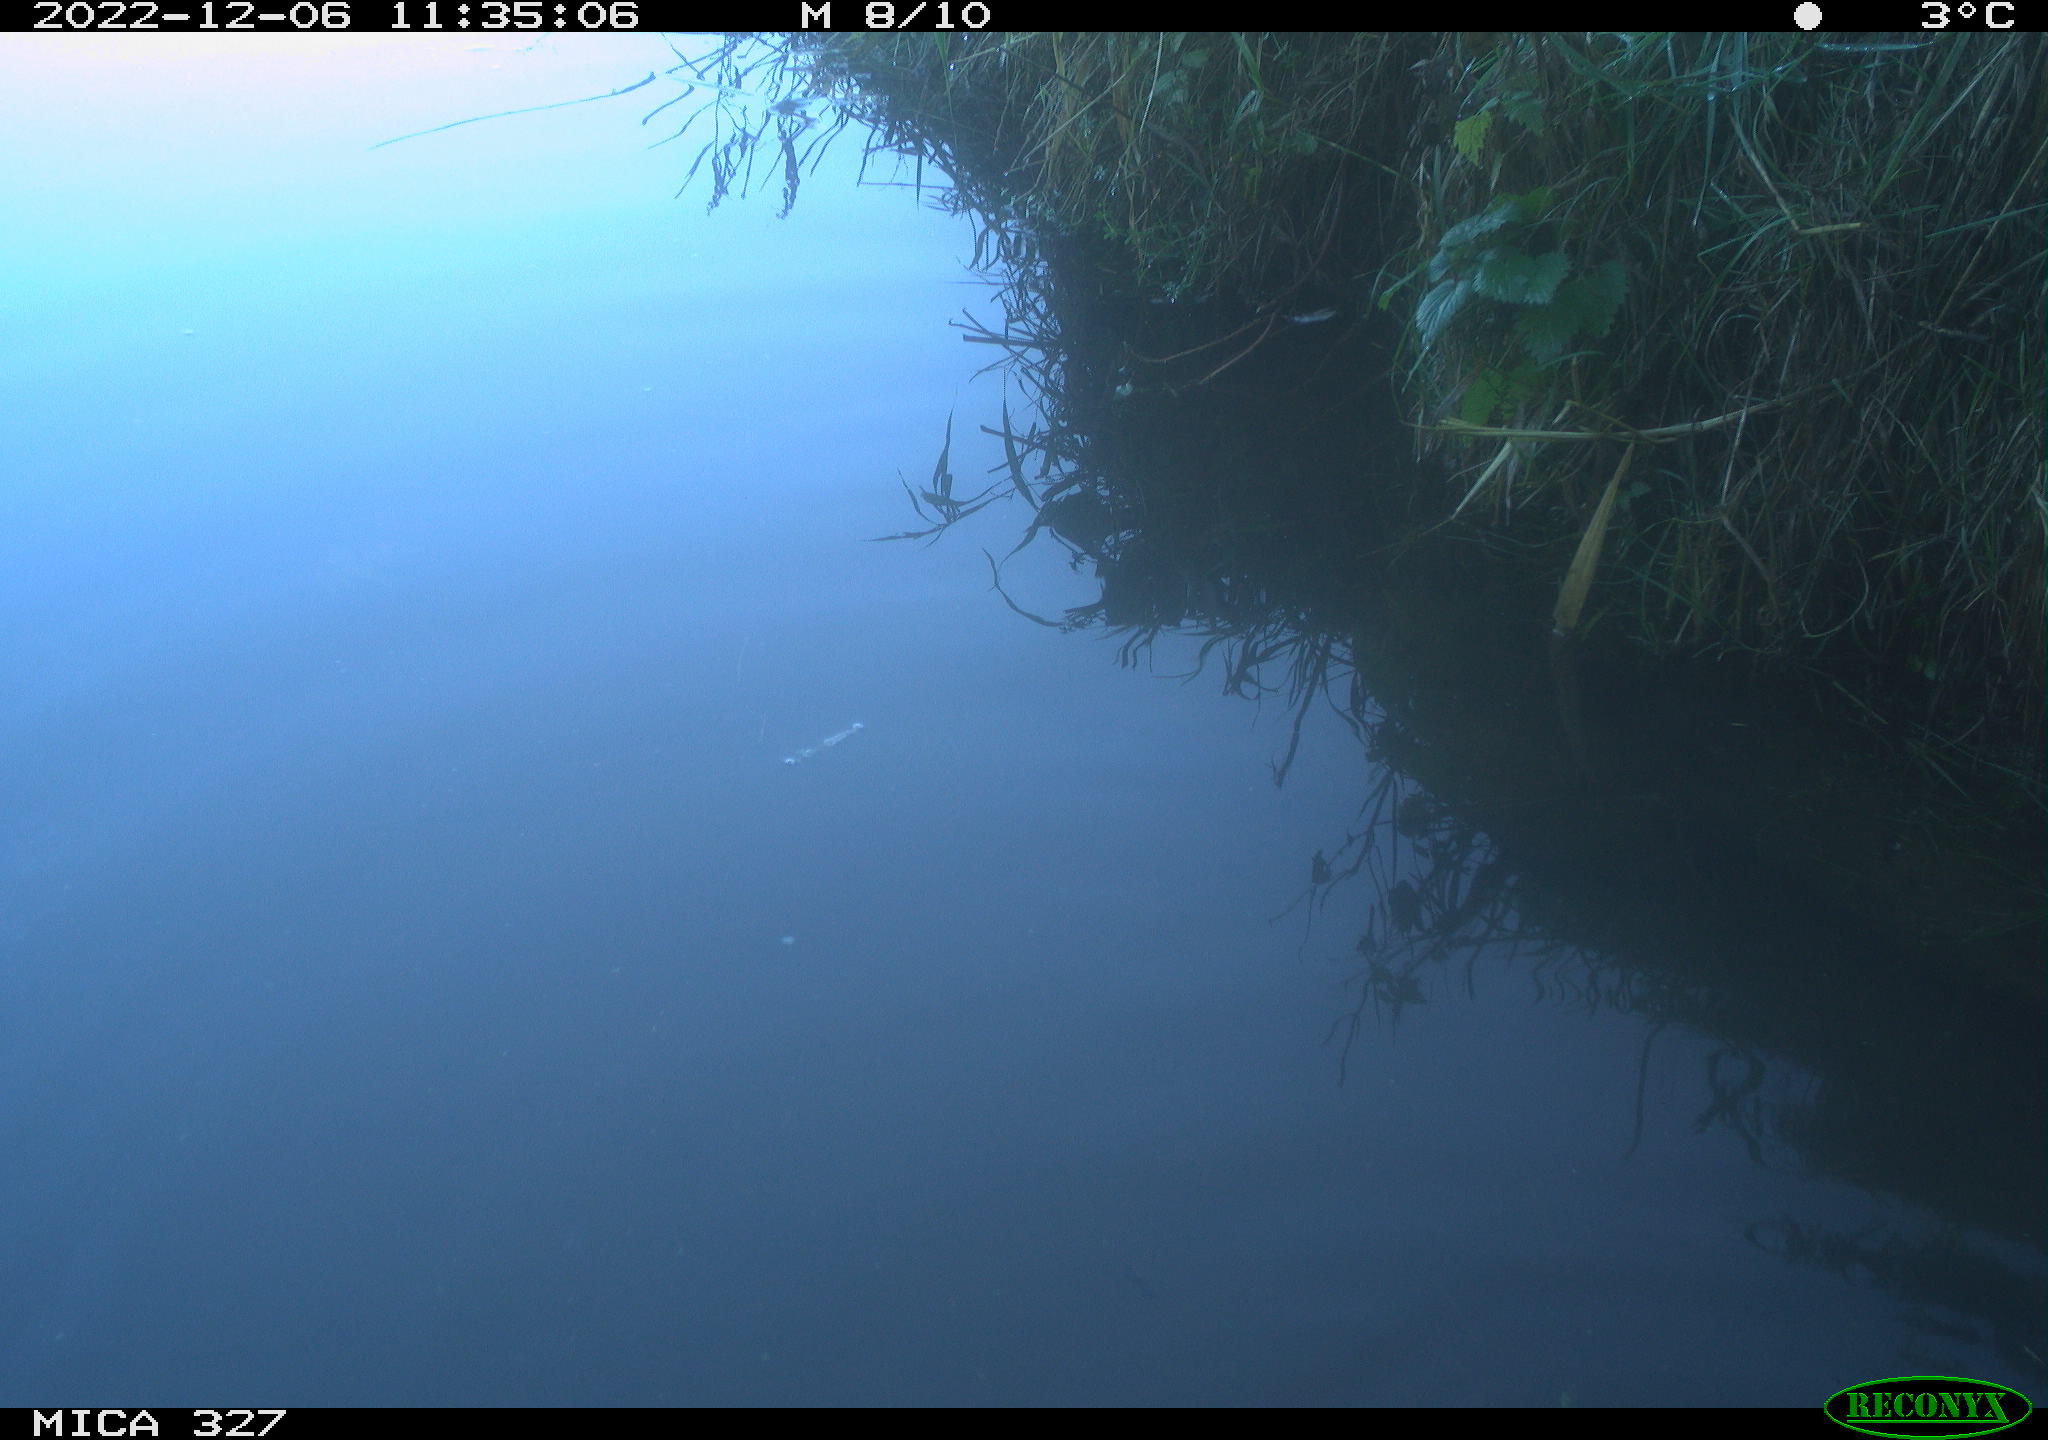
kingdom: Animalia
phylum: Chordata
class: Aves
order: Gruiformes
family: Rallidae
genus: Gallinula
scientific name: Gallinula chloropus
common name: Common moorhen
